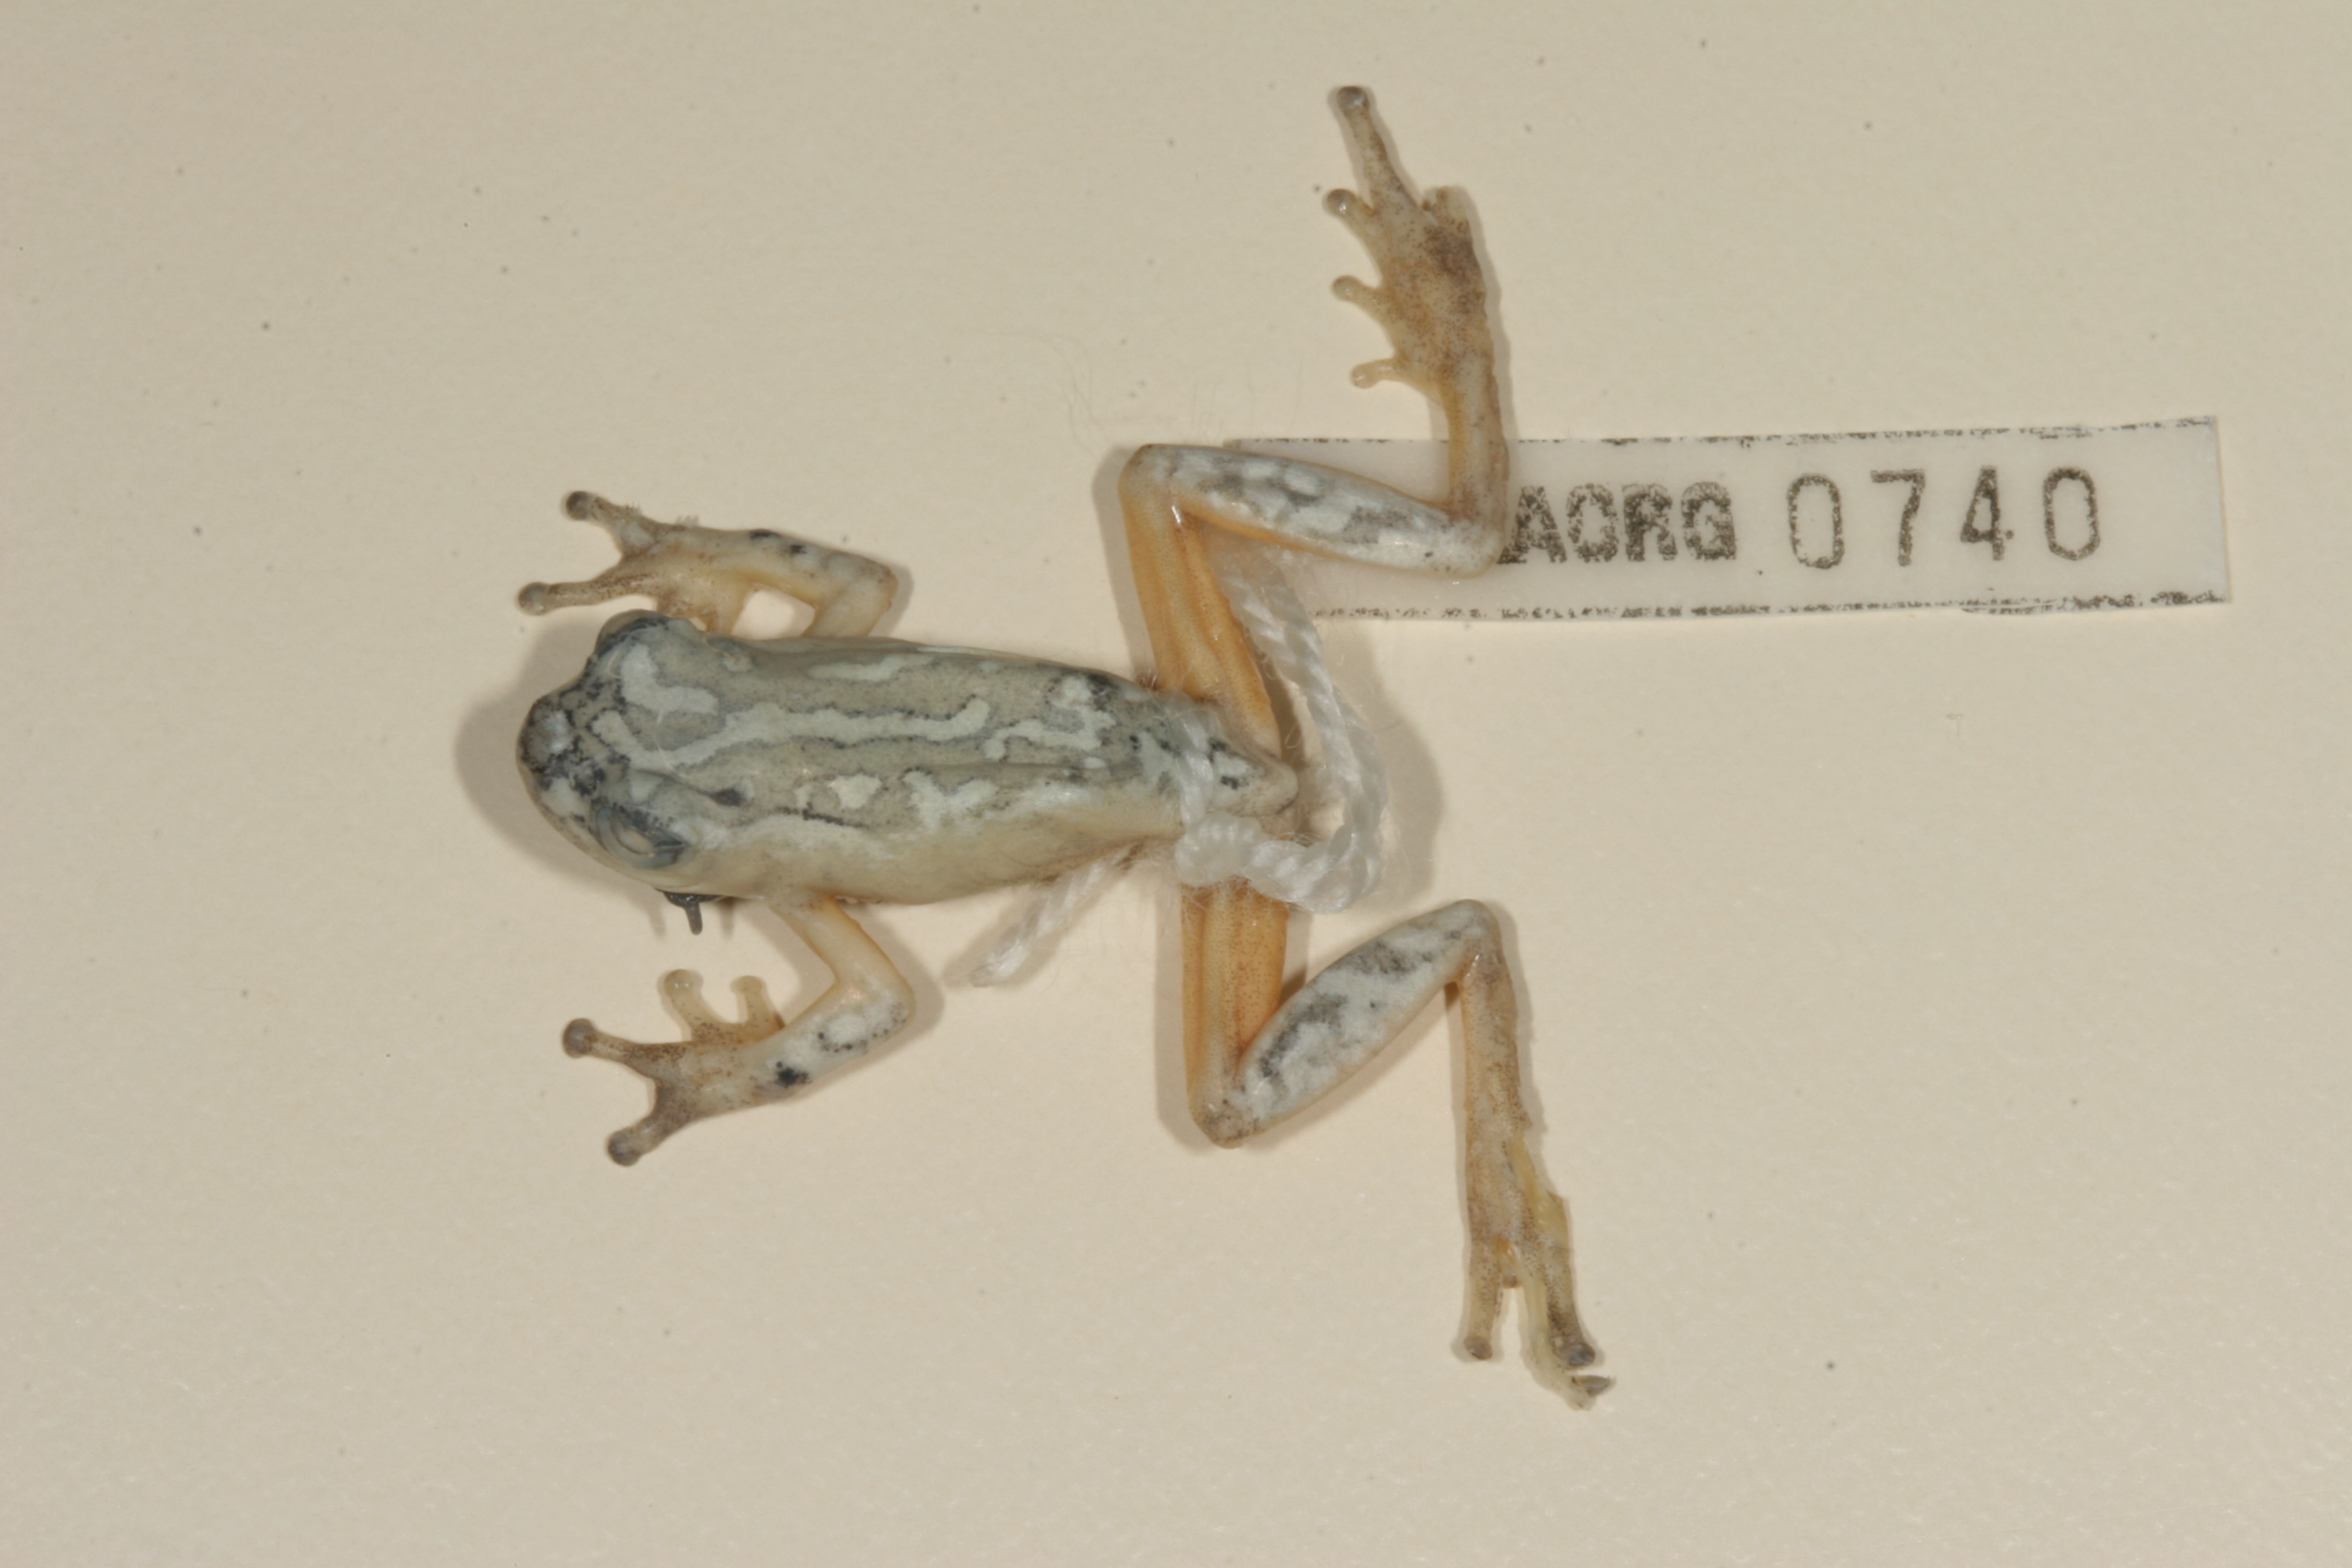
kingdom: Animalia
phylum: Chordata
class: Amphibia
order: Anura
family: Hyperoliidae
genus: Hyperolius
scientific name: Hyperolius marmoratus
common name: Painted reed frog
